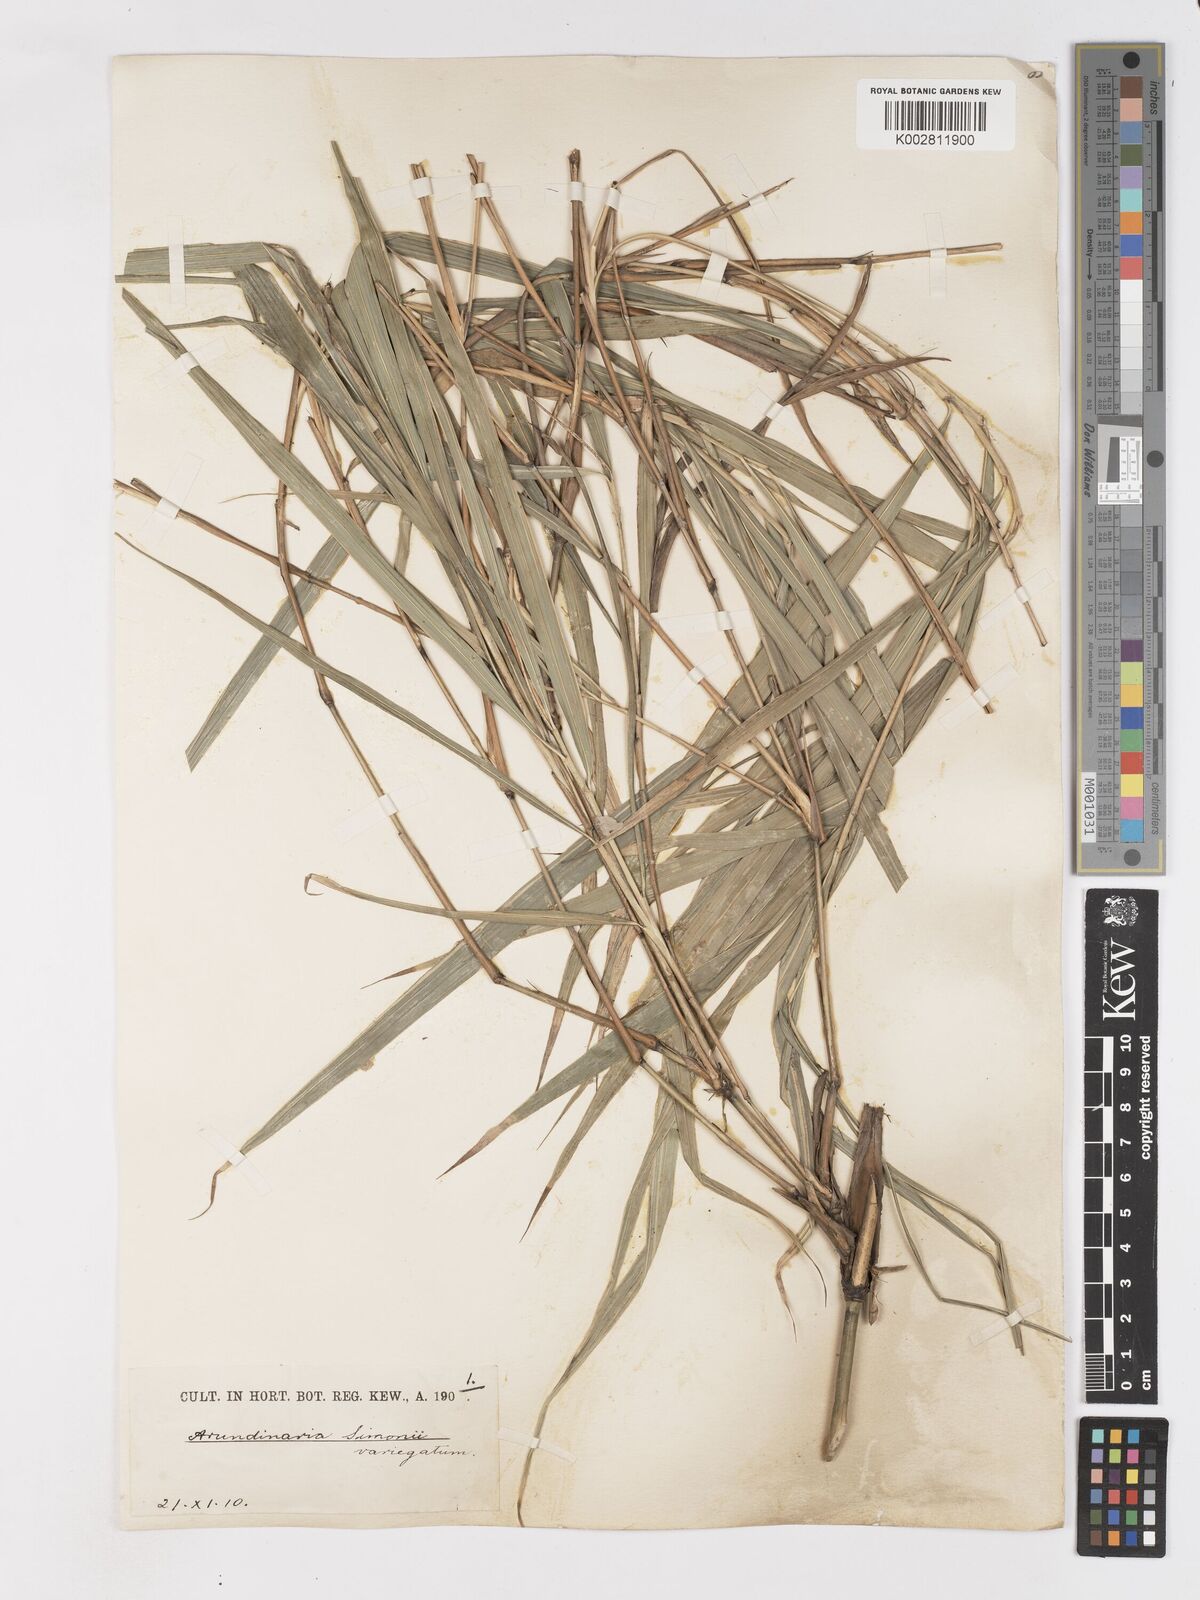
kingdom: Plantae
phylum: Tracheophyta
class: Liliopsida
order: Poales
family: Poaceae
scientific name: Poaceae
